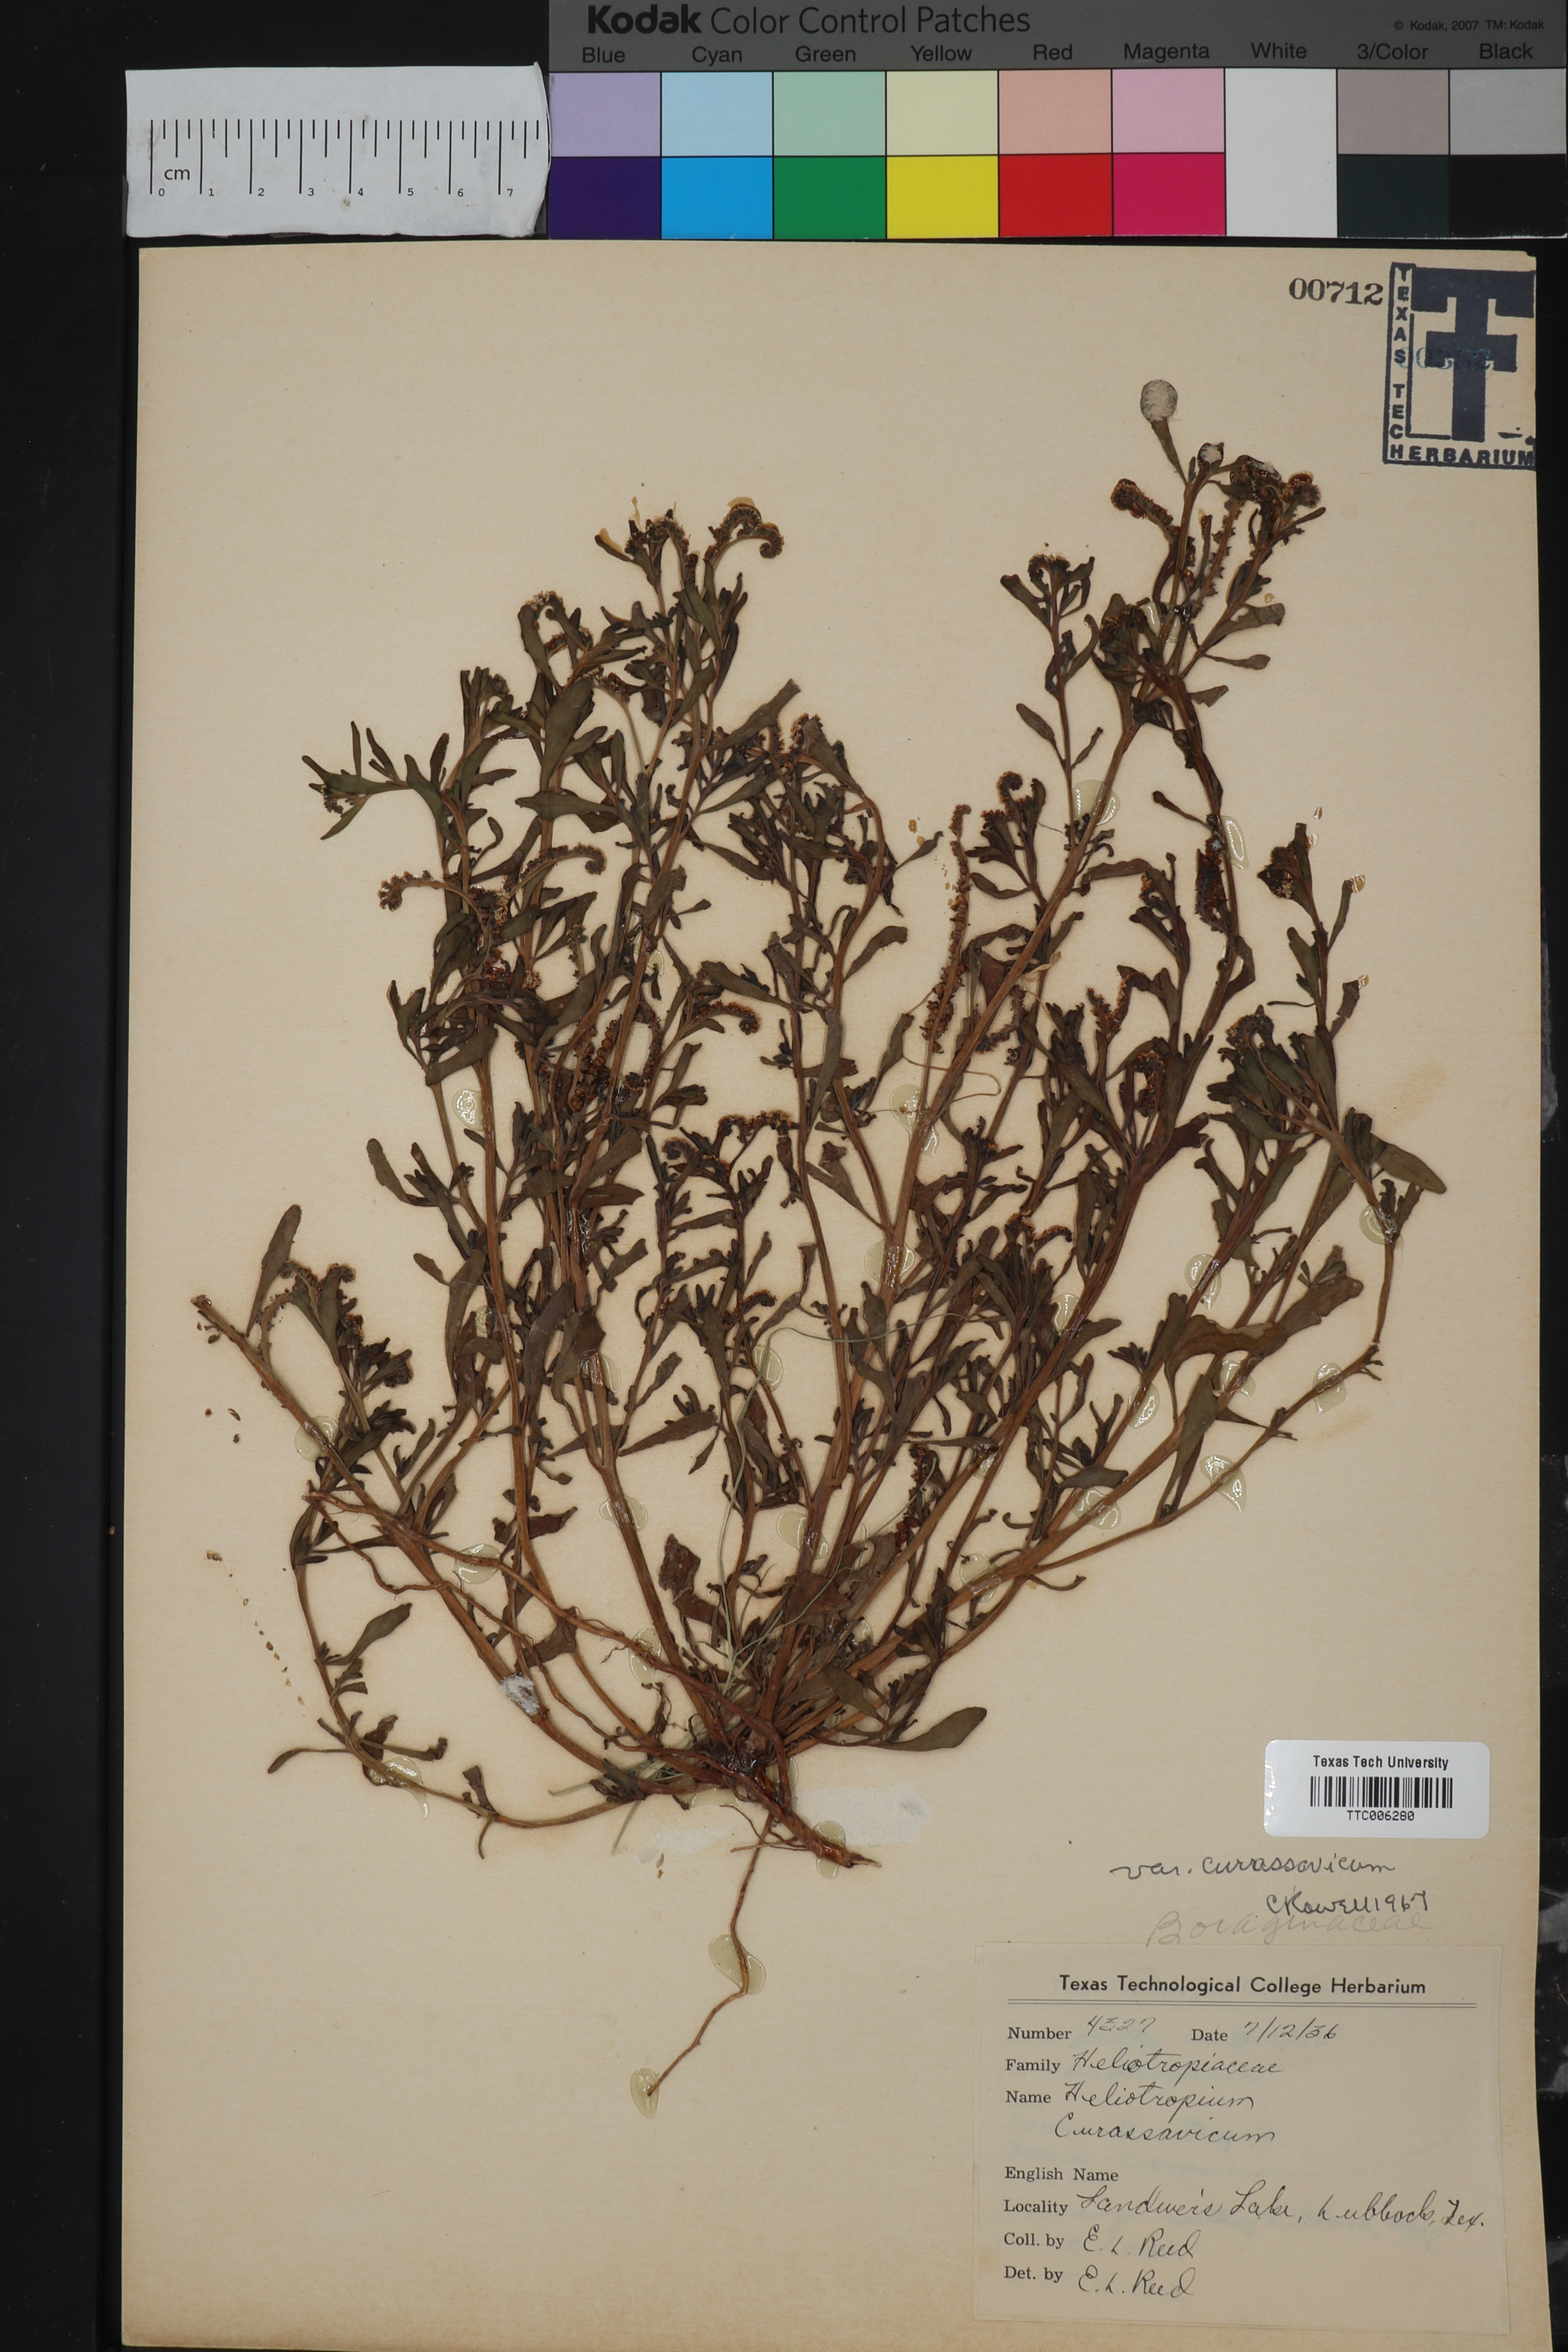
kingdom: Plantae
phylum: Tracheophyta
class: Magnoliopsida
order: Boraginales
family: Heliotropiaceae
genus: Heliotropium
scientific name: Heliotropium curassavicum
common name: Seaside heliotrope
